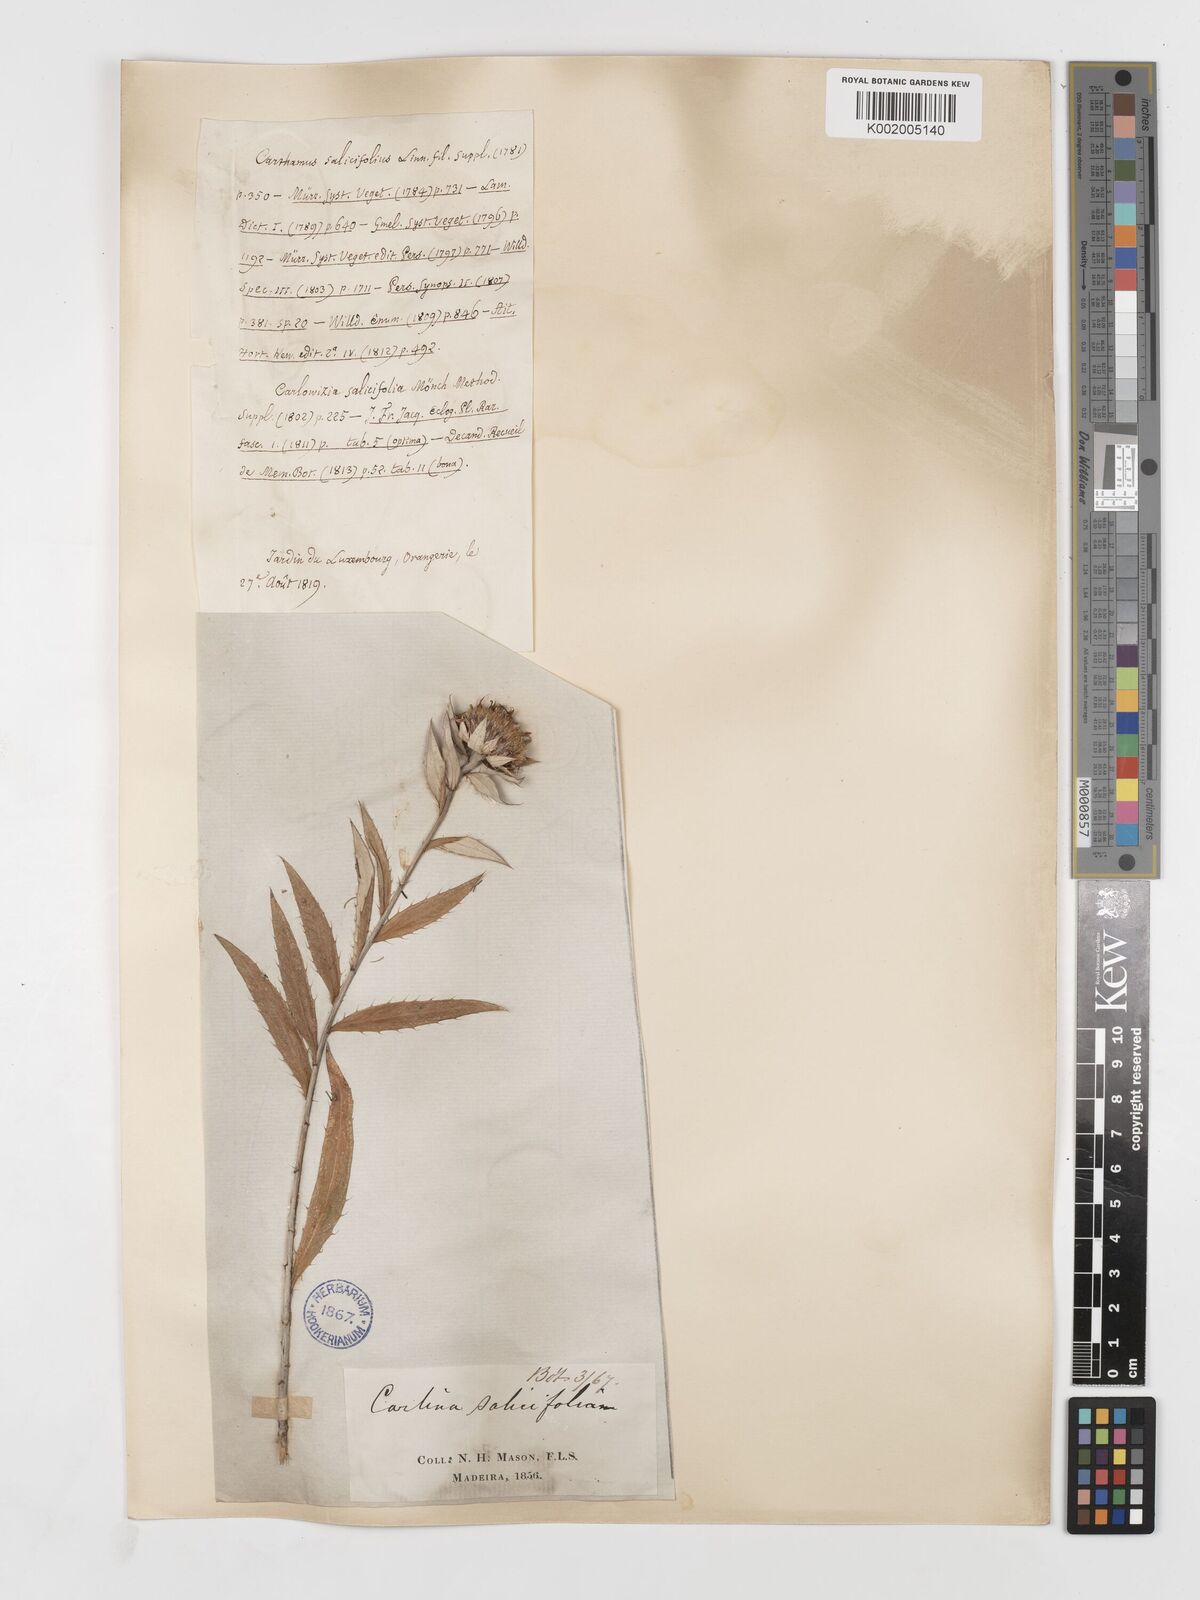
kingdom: Plantae
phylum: Tracheophyta
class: Magnoliopsida
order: Asterales
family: Asteraceae
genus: Carlina
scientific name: Carlina salicifolia
